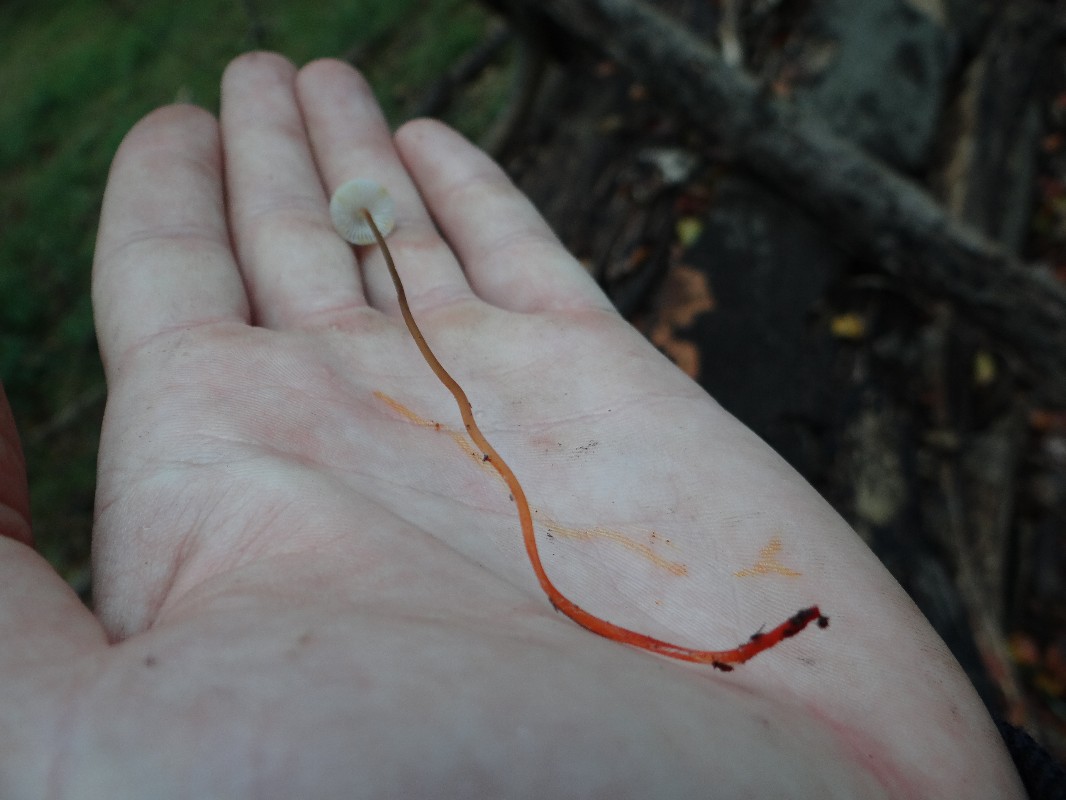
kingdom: Fungi
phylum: Basidiomycota
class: Agaricomycetes
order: Agaricales
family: Mycenaceae
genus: Mycena
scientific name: Mycena crocata
